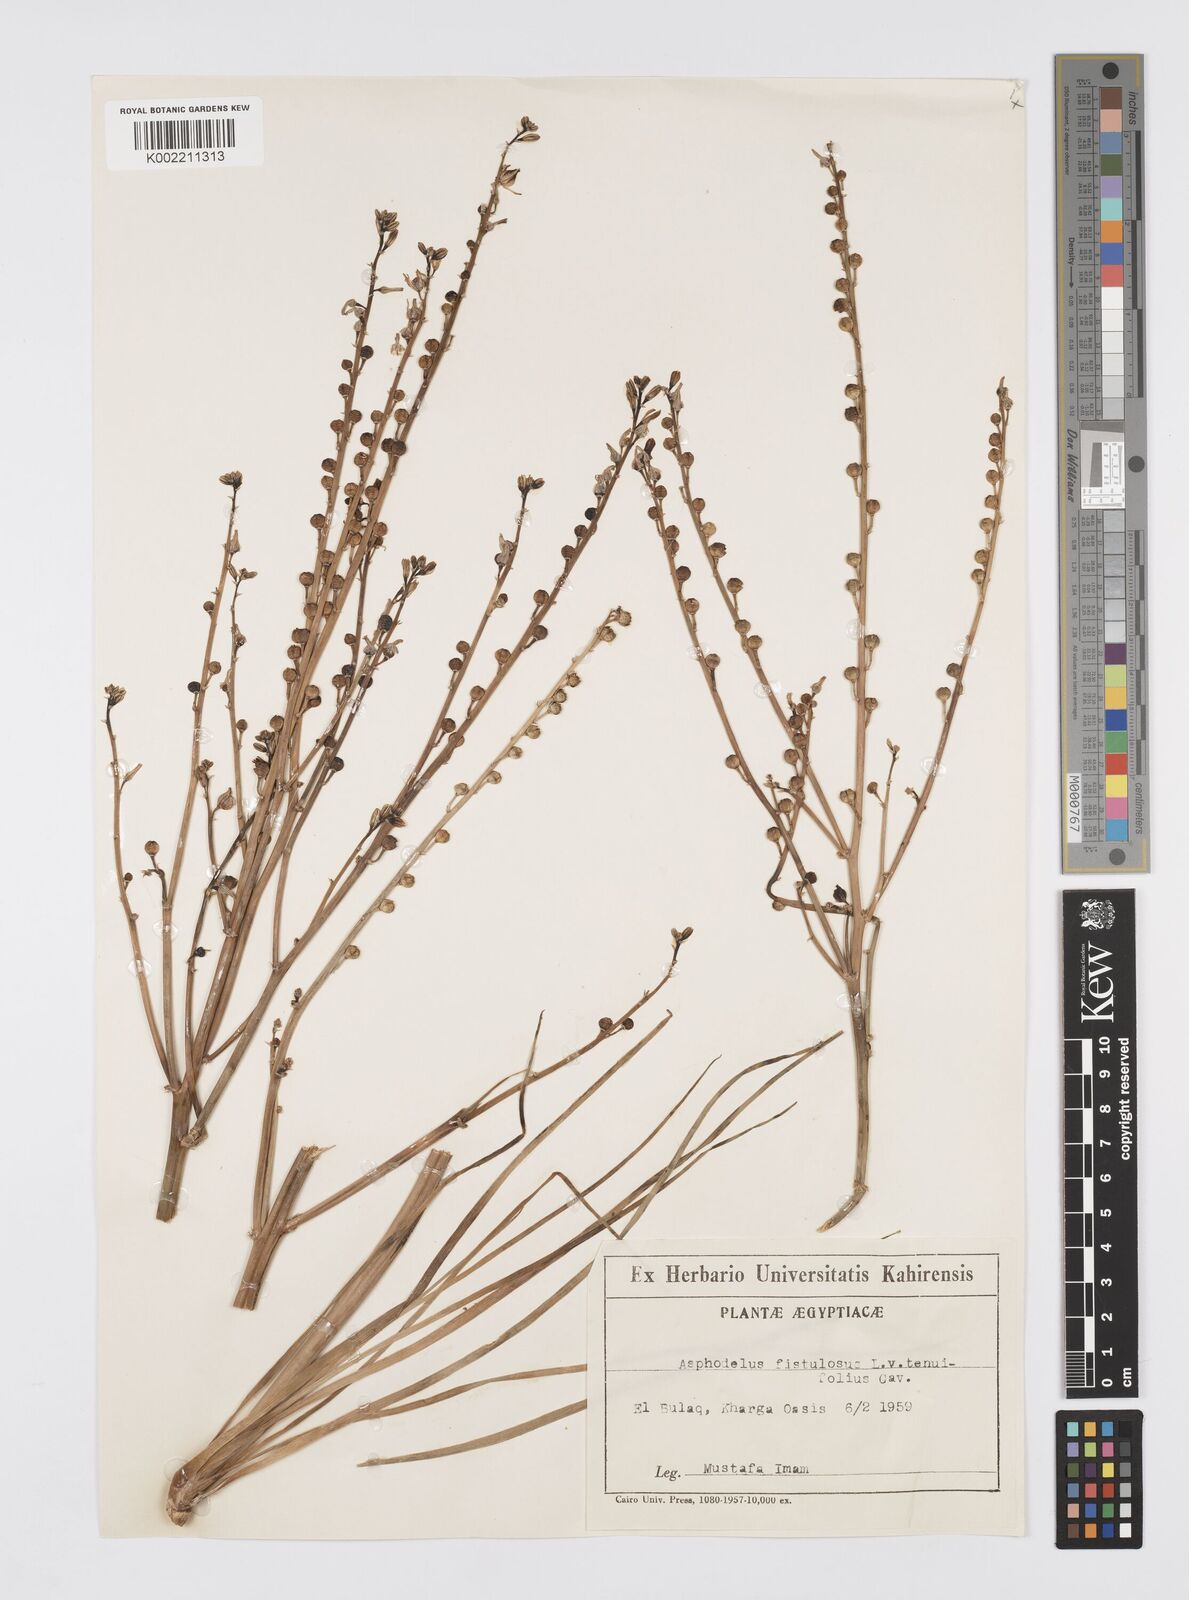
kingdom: Plantae
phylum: Tracheophyta
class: Liliopsida
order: Asparagales
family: Asphodelaceae
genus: Asphodeline
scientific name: Asphodeline tenuior
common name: Thin asphodeline
